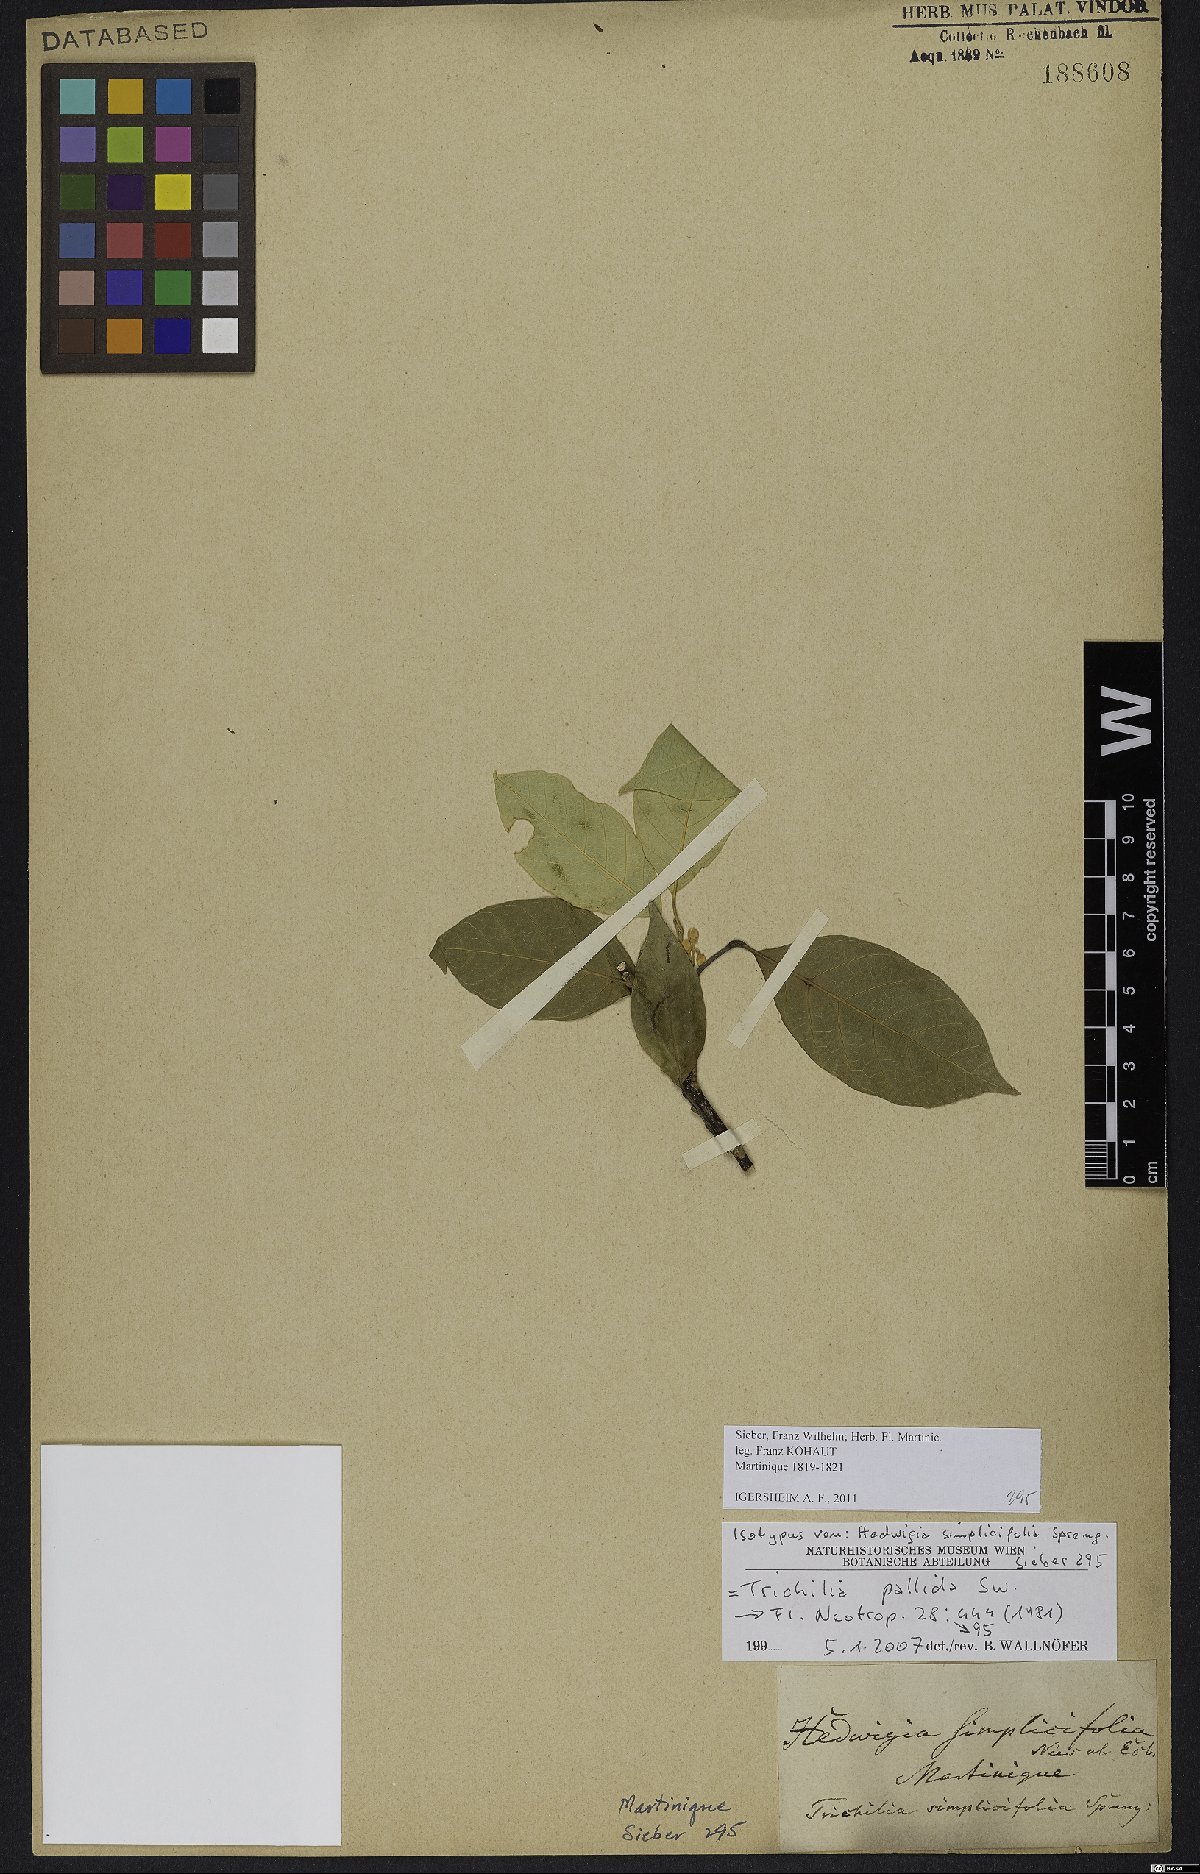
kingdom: Plantae
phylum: Tracheophyta
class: Magnoliopsida
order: Sapindales
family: Meliaceae
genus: Trichilia
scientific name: Trichilia pallida
